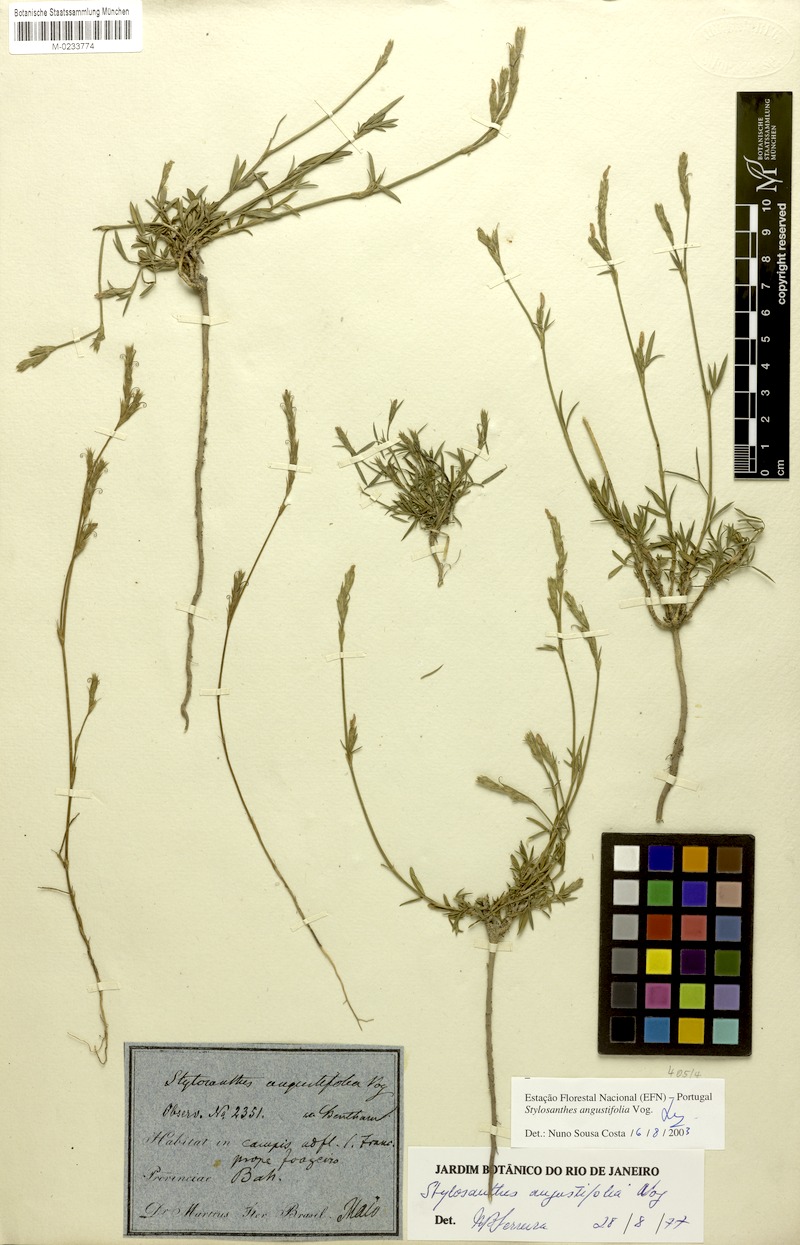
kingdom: Plantae
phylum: Tracheophyta
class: Magnoliopsida
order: Fabales
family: Fabaceae
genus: Stylosanthes
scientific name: Stylosanthes angustifolia
